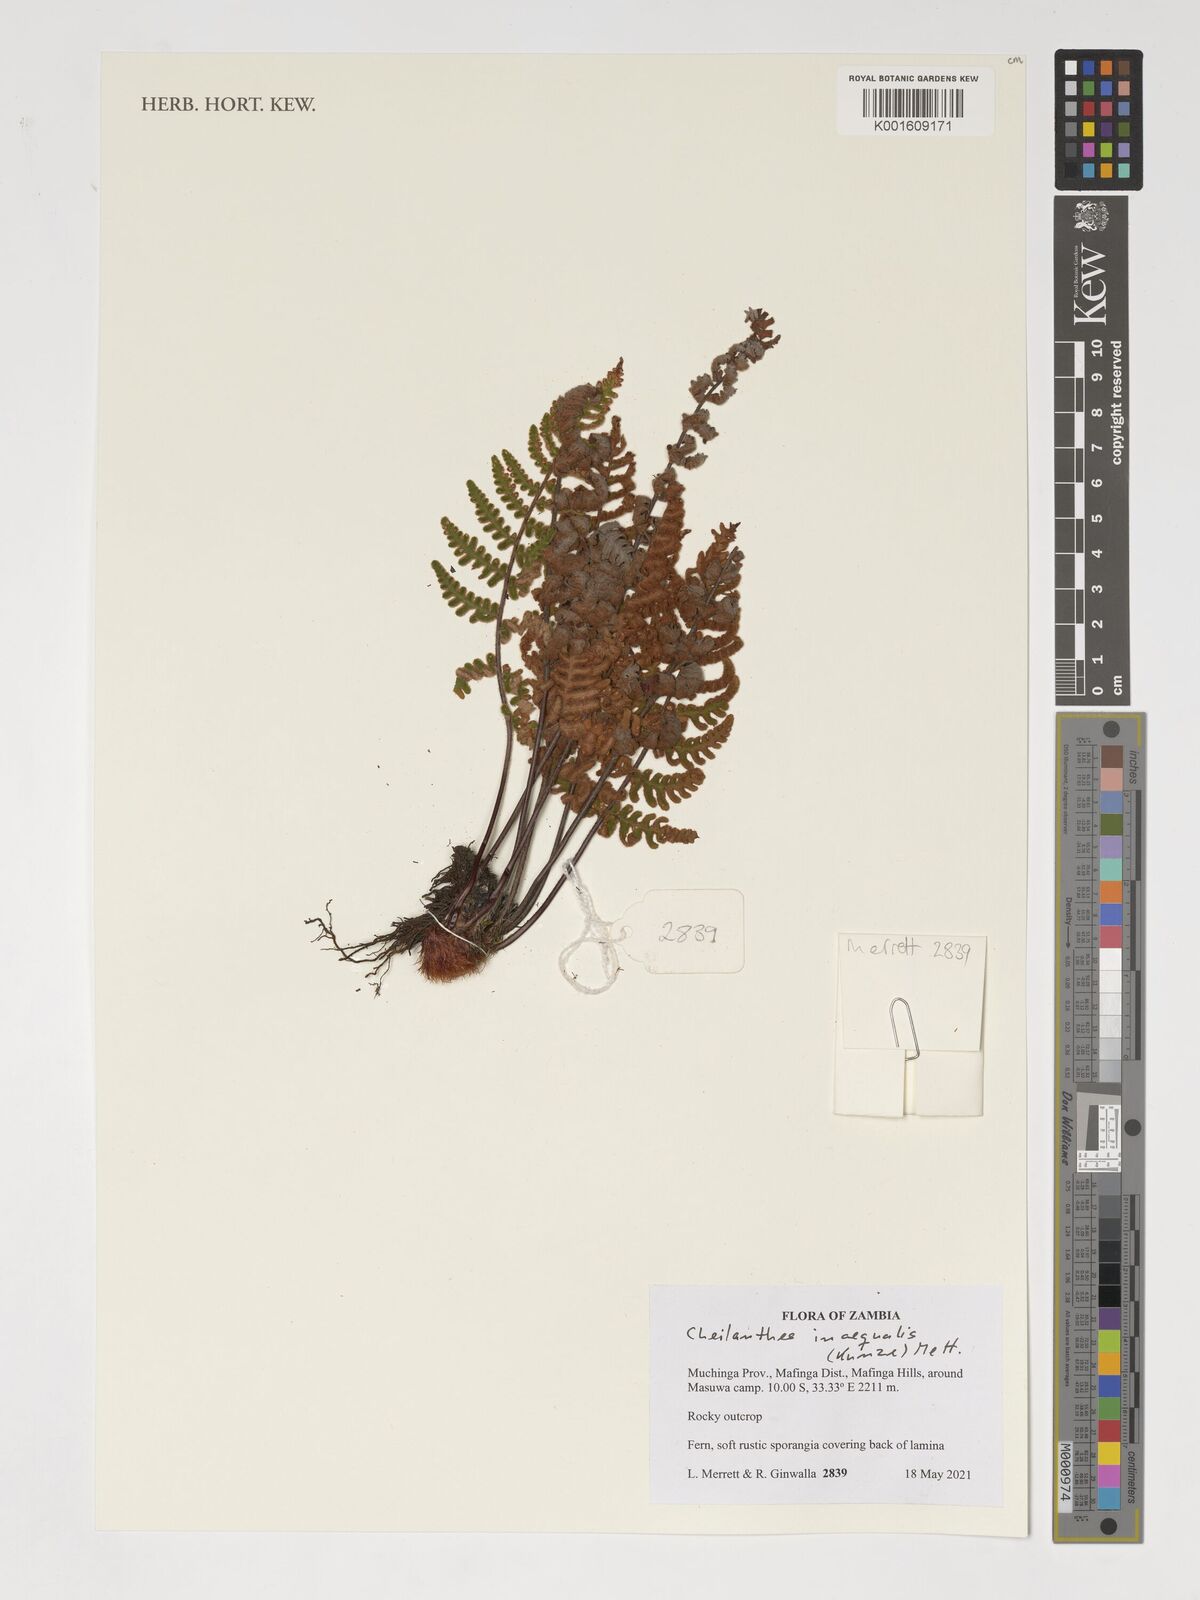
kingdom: Plantae
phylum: Tracheophyta
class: Polypodiopsida
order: Polypodiales
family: Pteridaceae
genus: Cheilanthes
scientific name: Cheilanthes inaequalis
